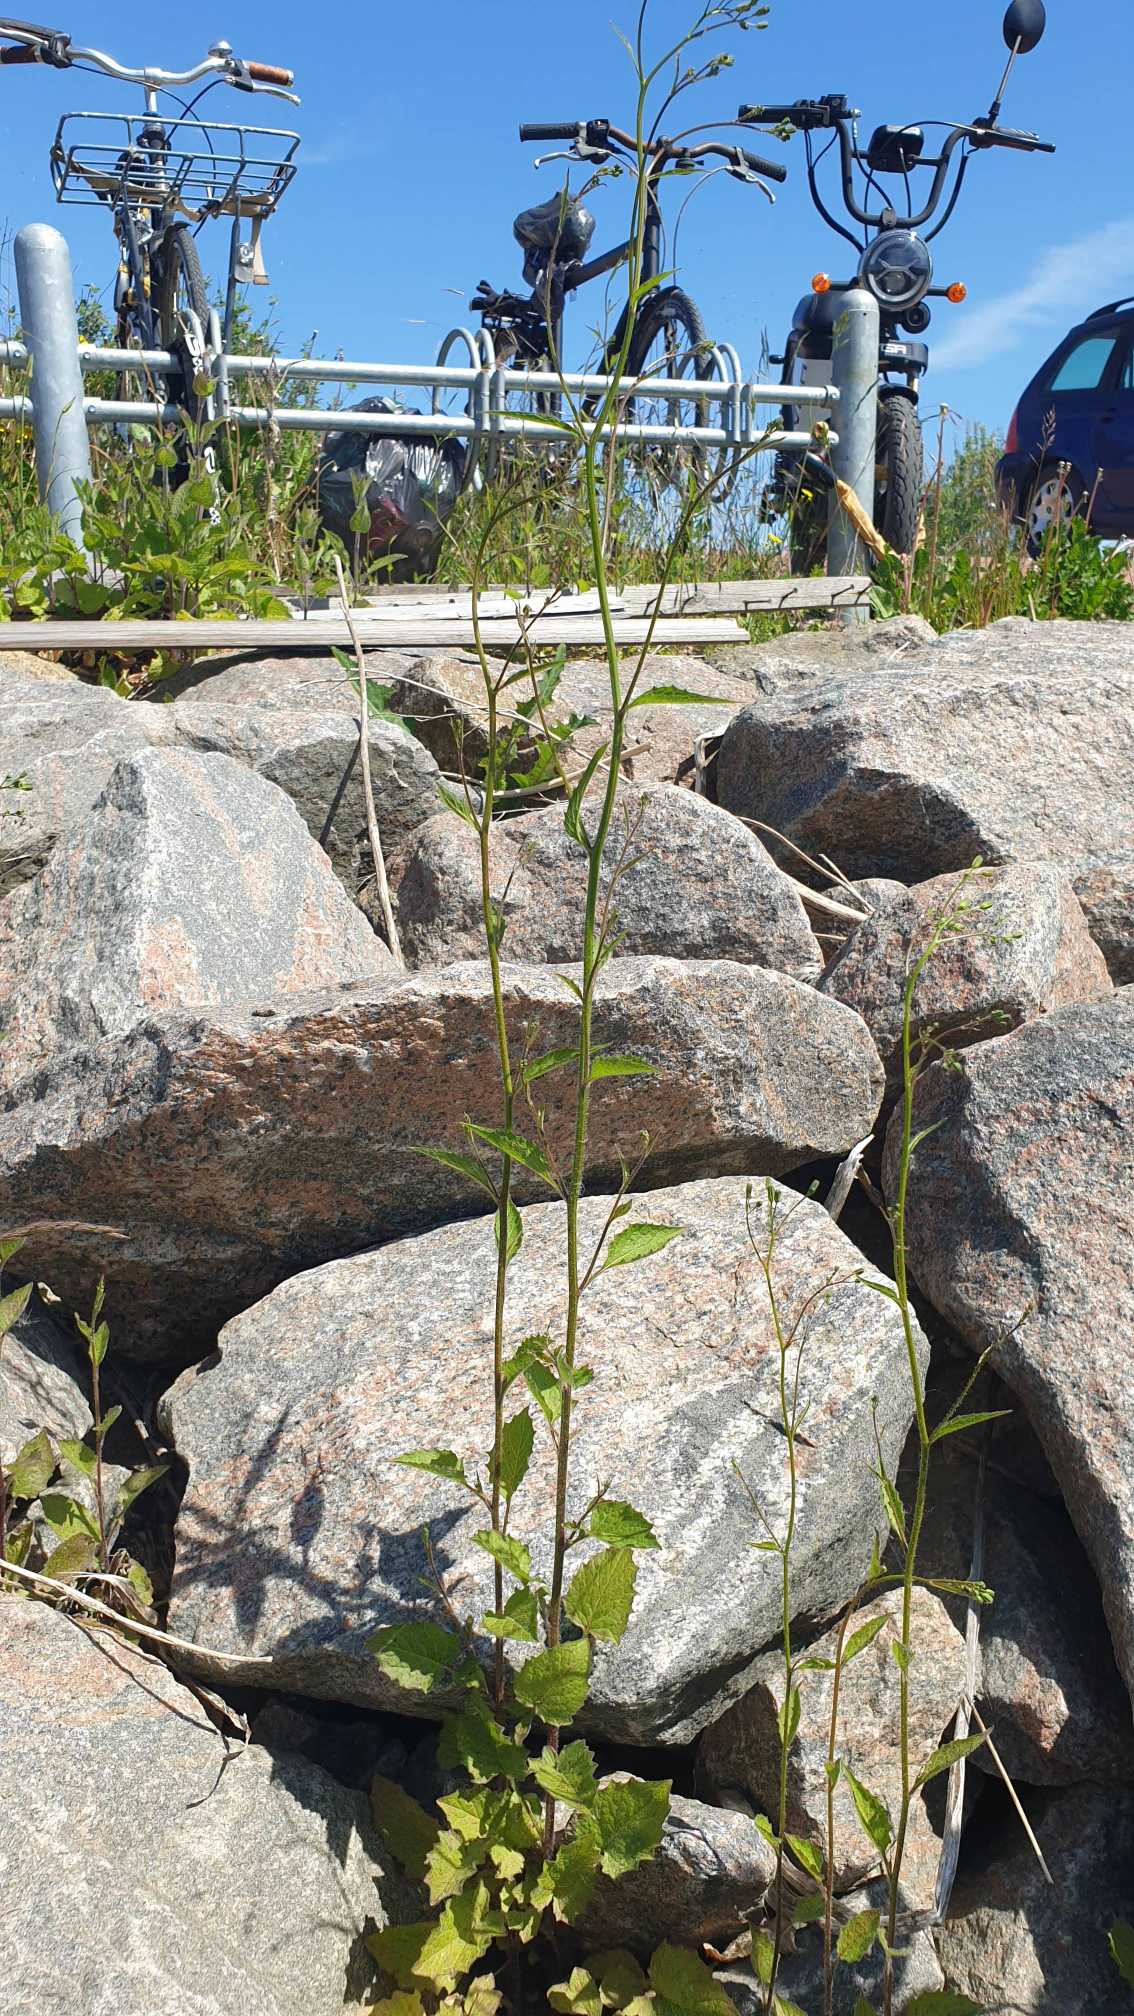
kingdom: Plantae
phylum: Tracheophyta
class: Magnoliopsida
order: Asterales
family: Asteraceae
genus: Lapsana
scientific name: Lapsana communis
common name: Haremad
